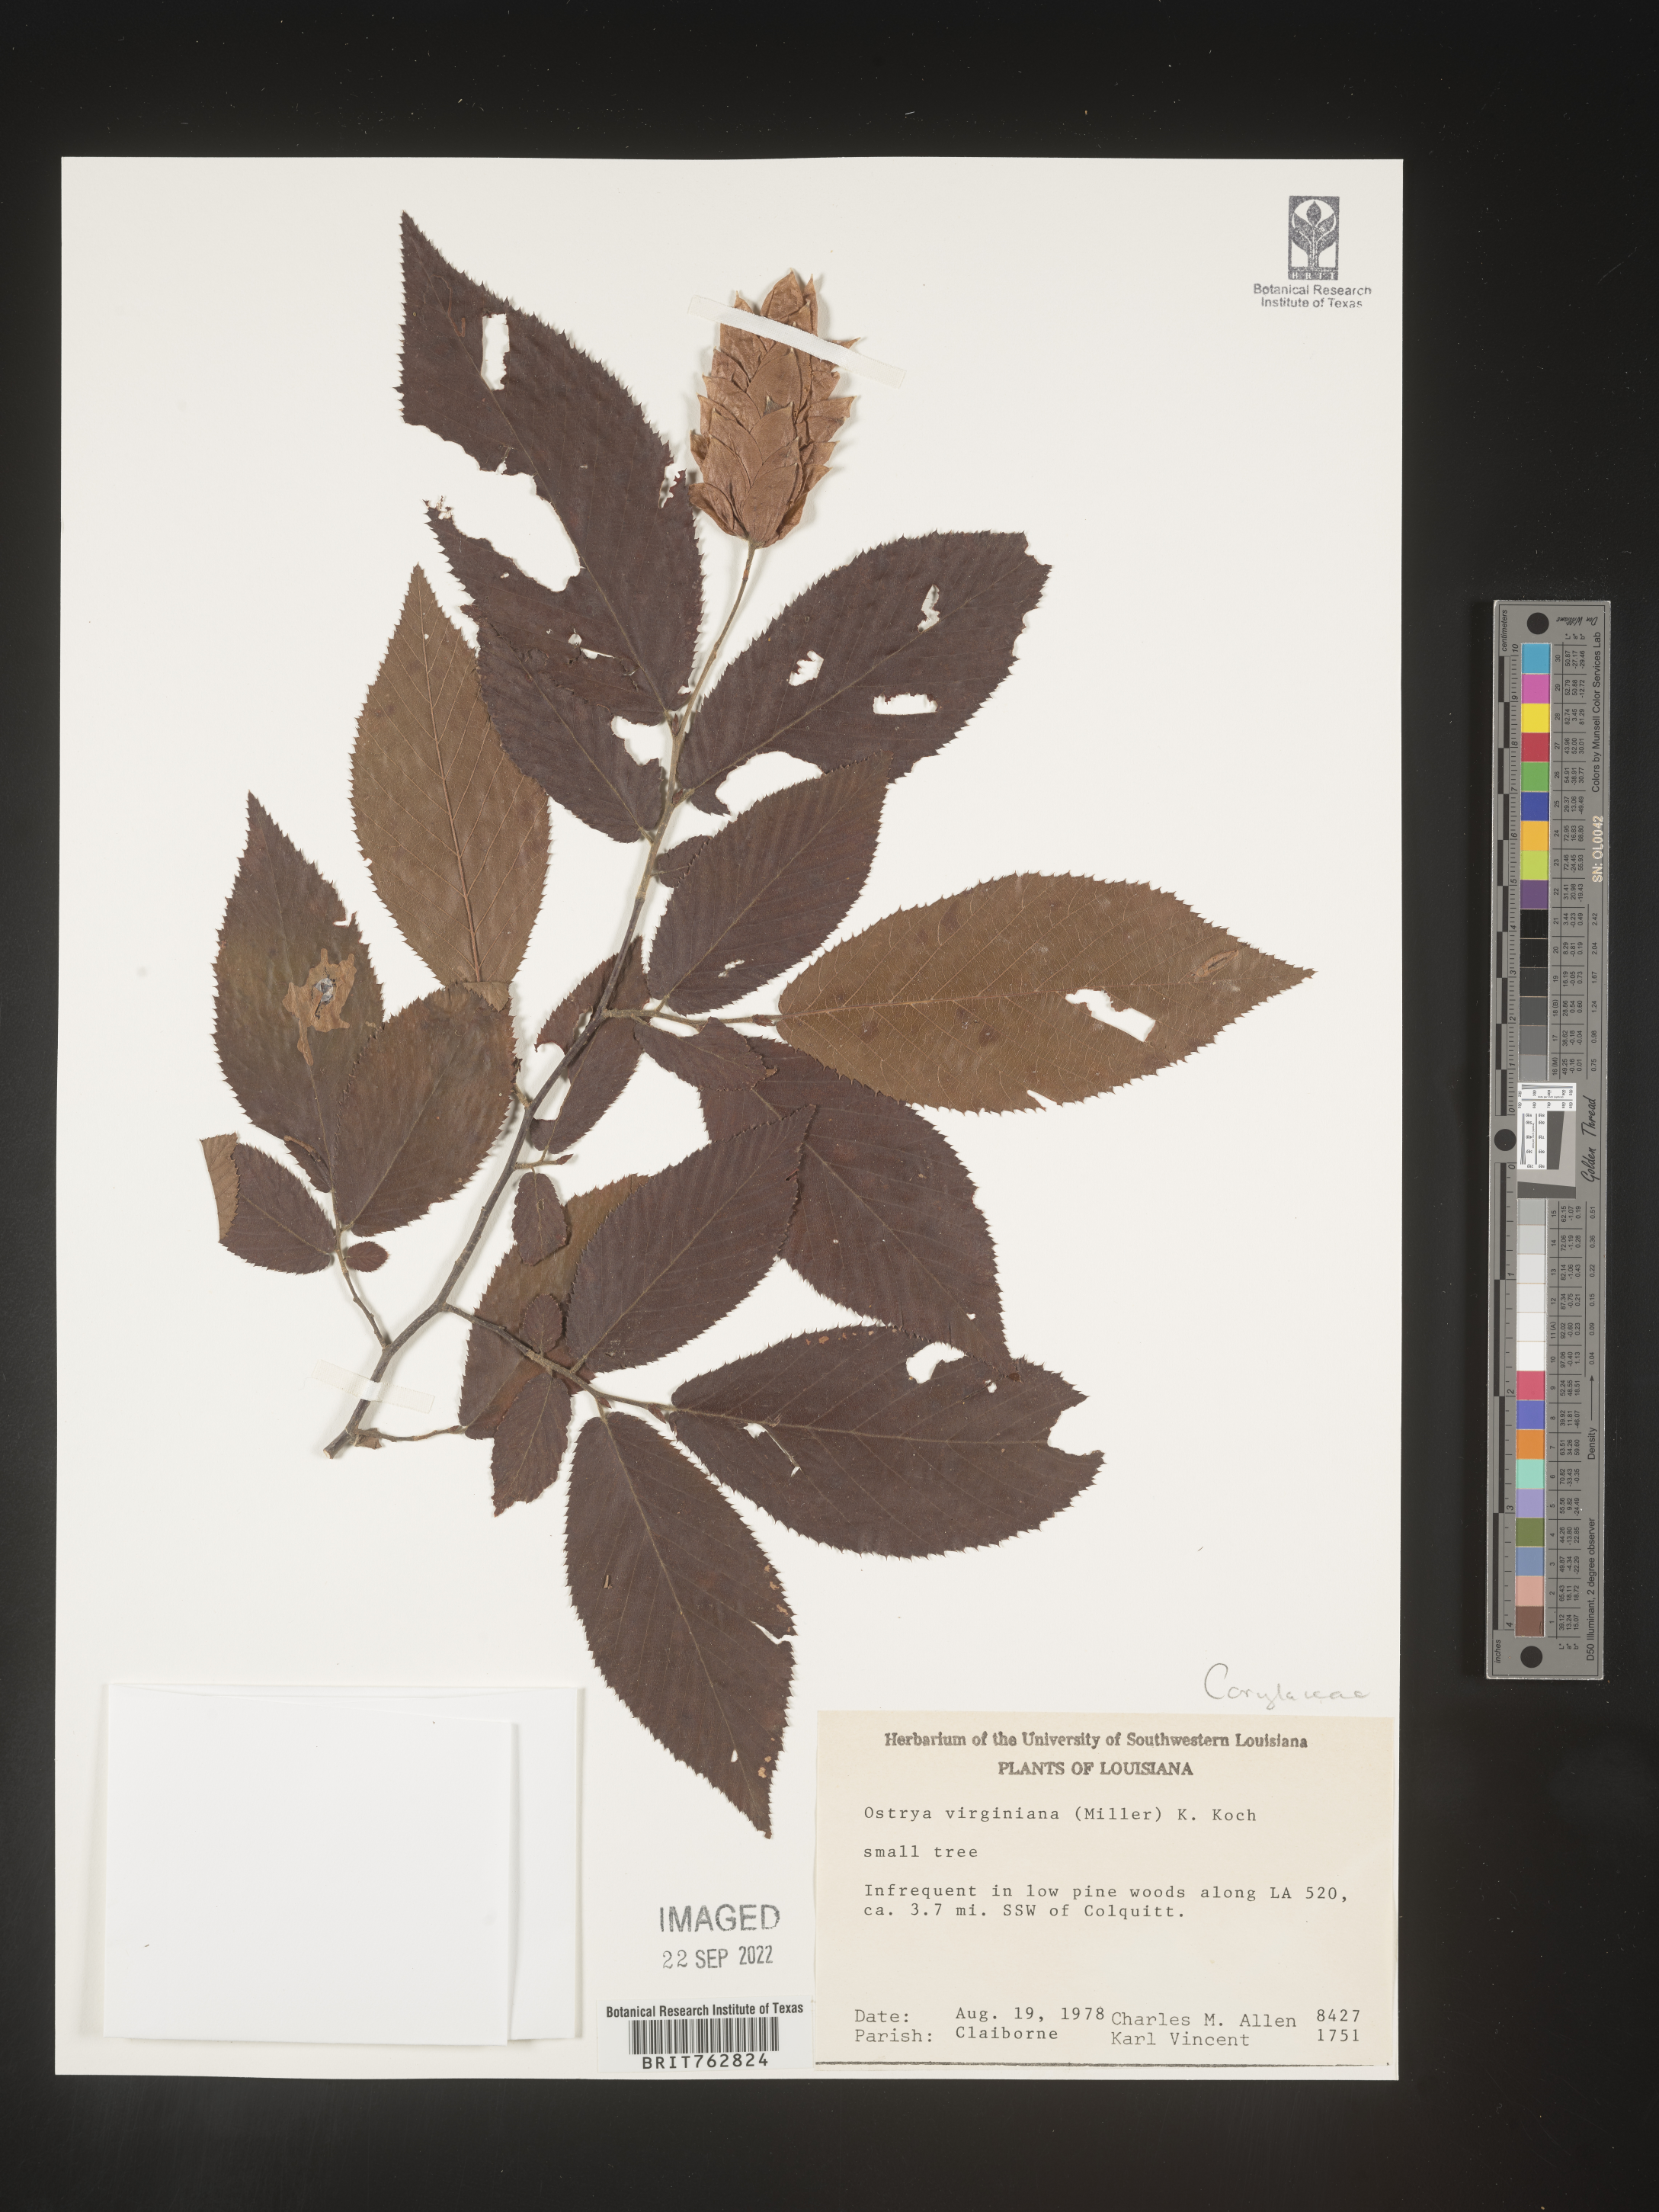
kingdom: Plantae
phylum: Tracheophyta
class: Magnoliopsida
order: Fagales
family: Betulaceae
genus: Ostrya
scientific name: Ostrya virginiana
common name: Ironwood
